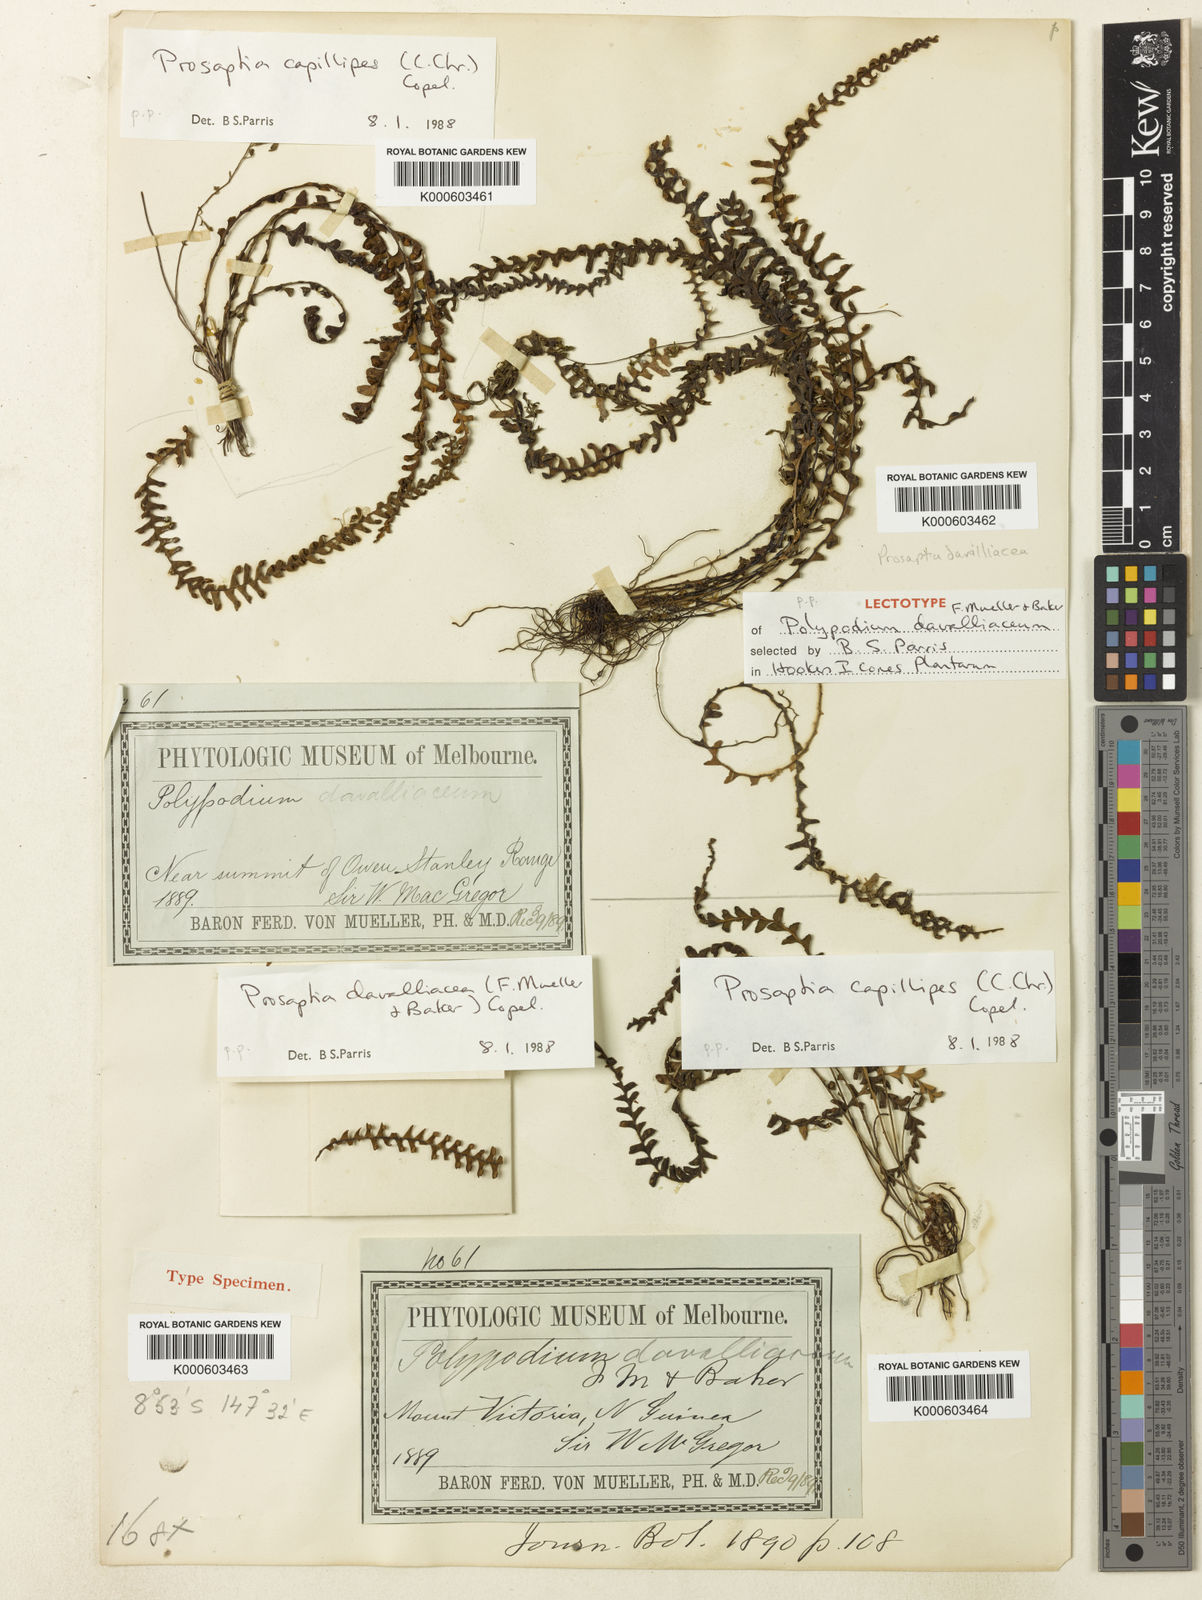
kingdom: Plantae
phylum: Tracheophyta
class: Polypodiopsida
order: Polypodiales
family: Polypodiaceae
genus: Prosaptia
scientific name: Prosaptia davalliacea
